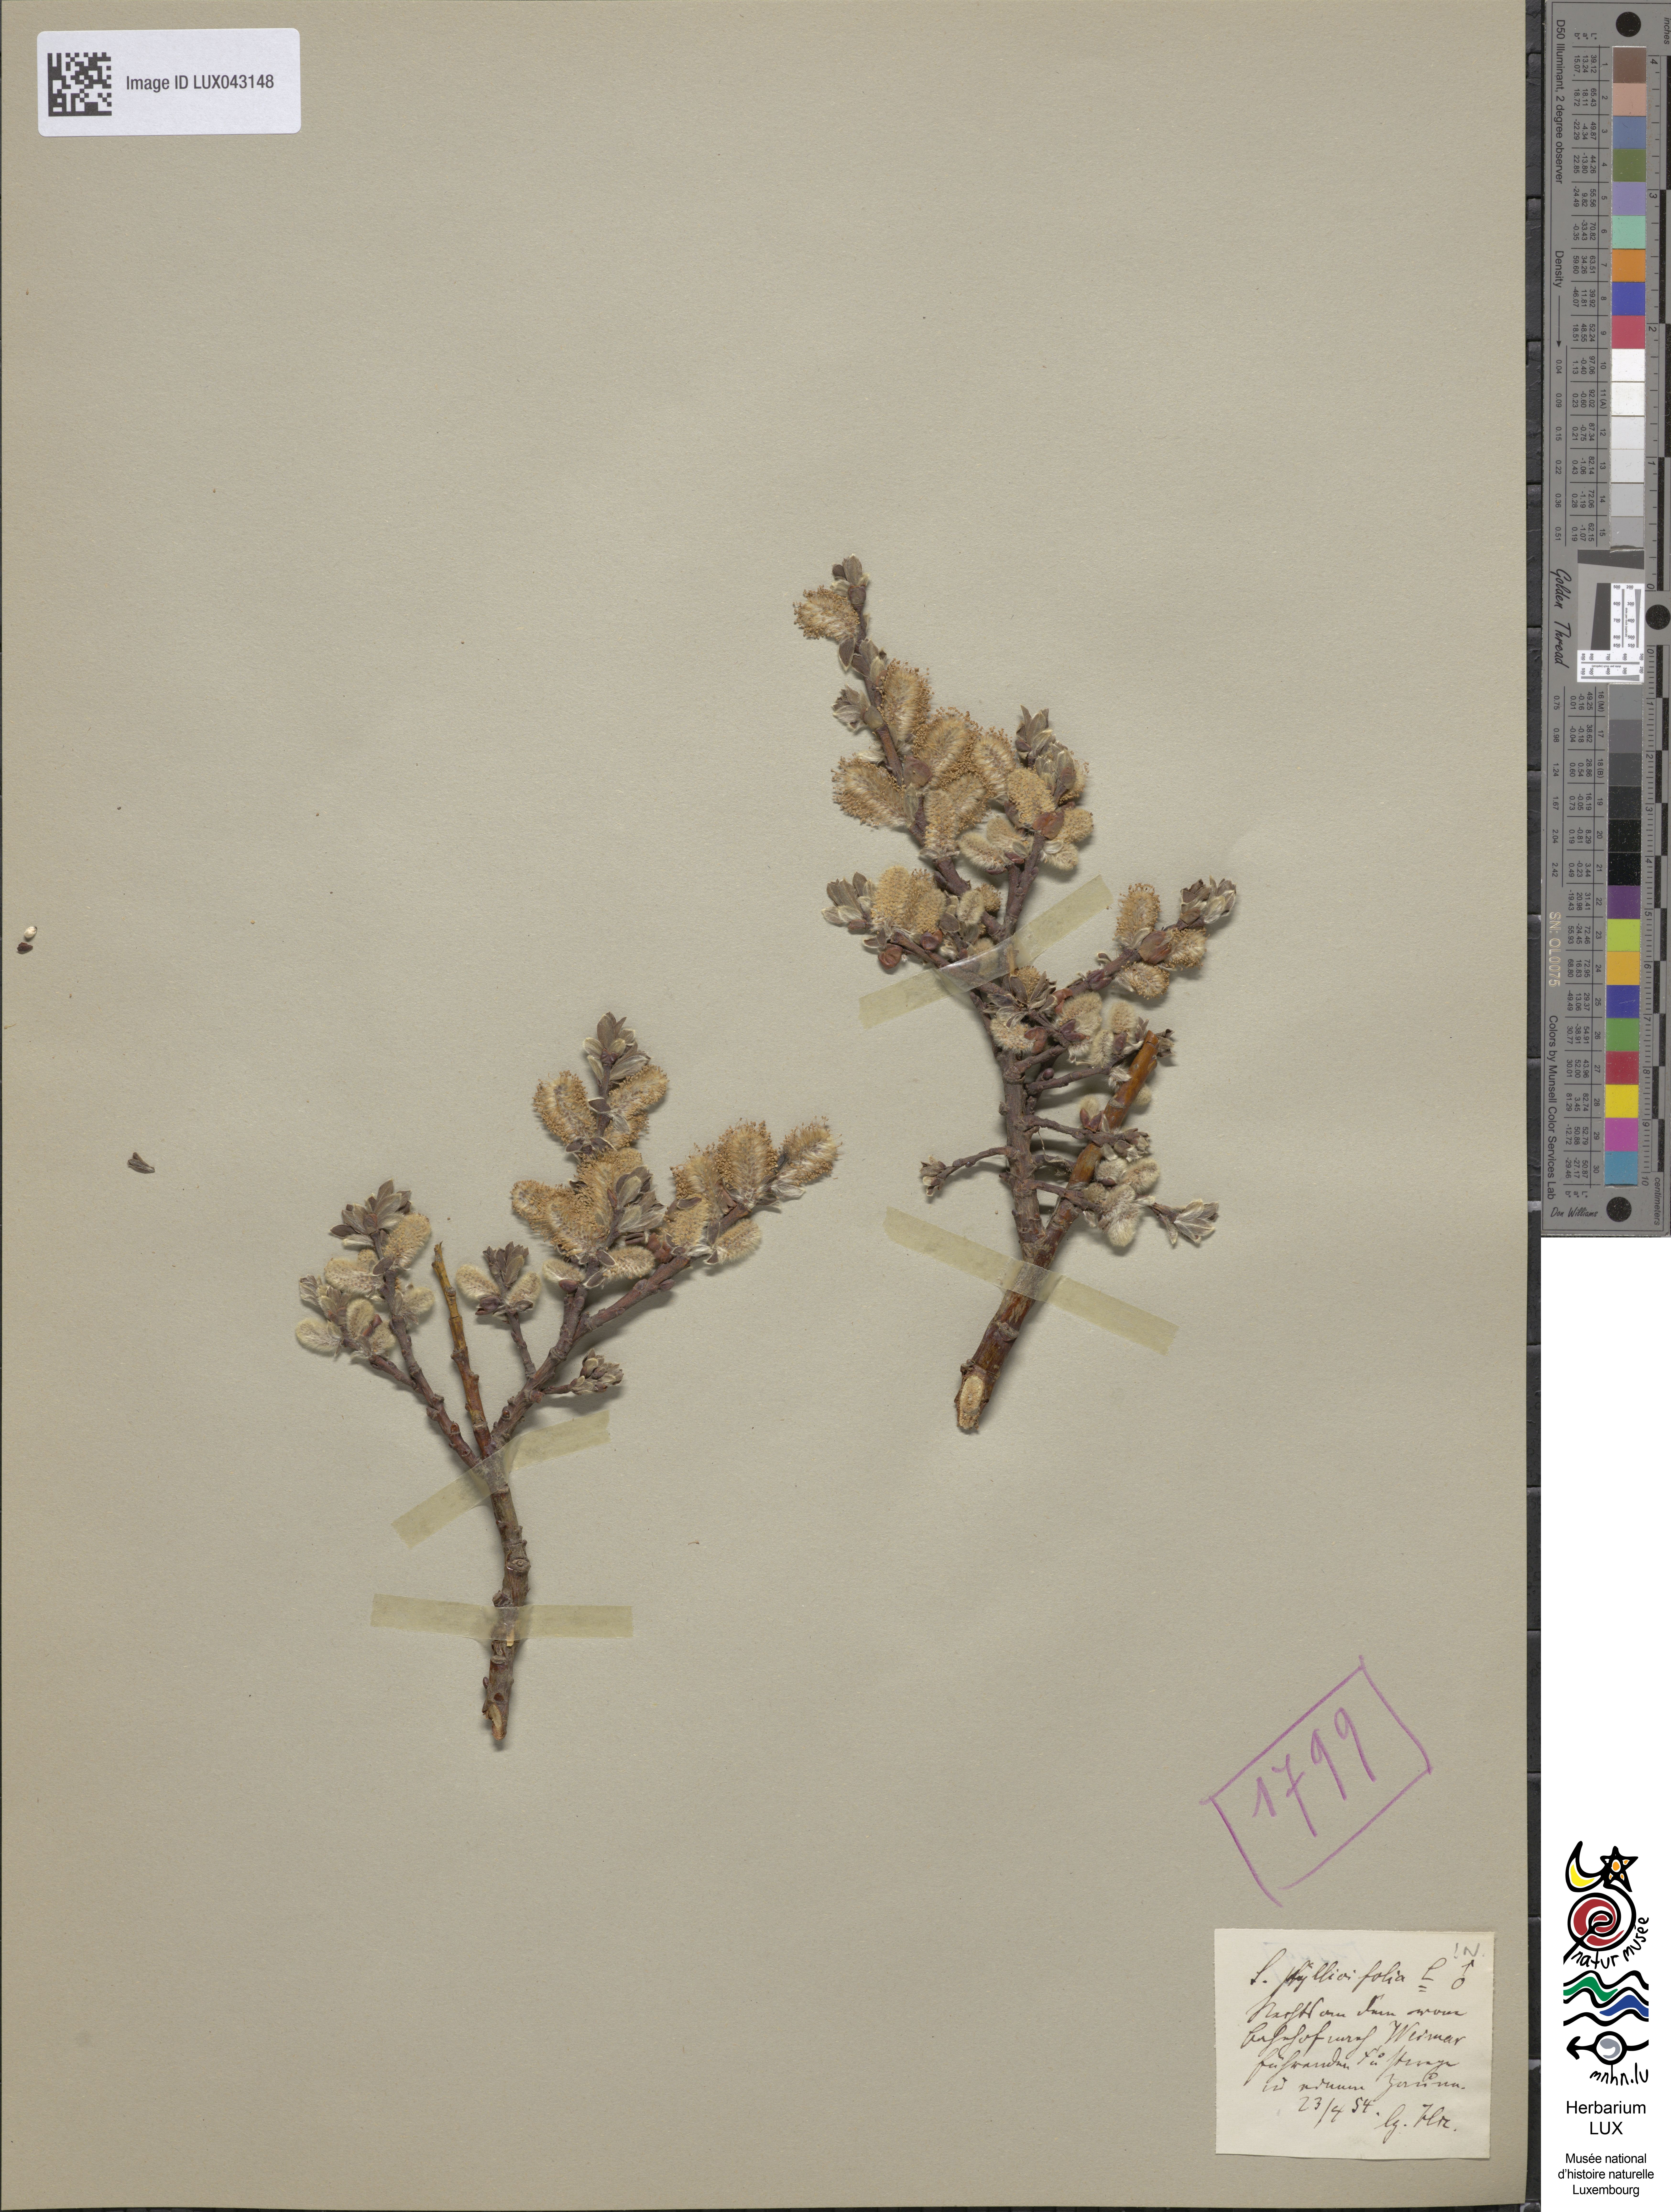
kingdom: Plantae
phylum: Tracheophyta
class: Magnoliopsida
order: Malpighiales
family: Salicaceae
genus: Salix
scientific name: Salix bicolor
